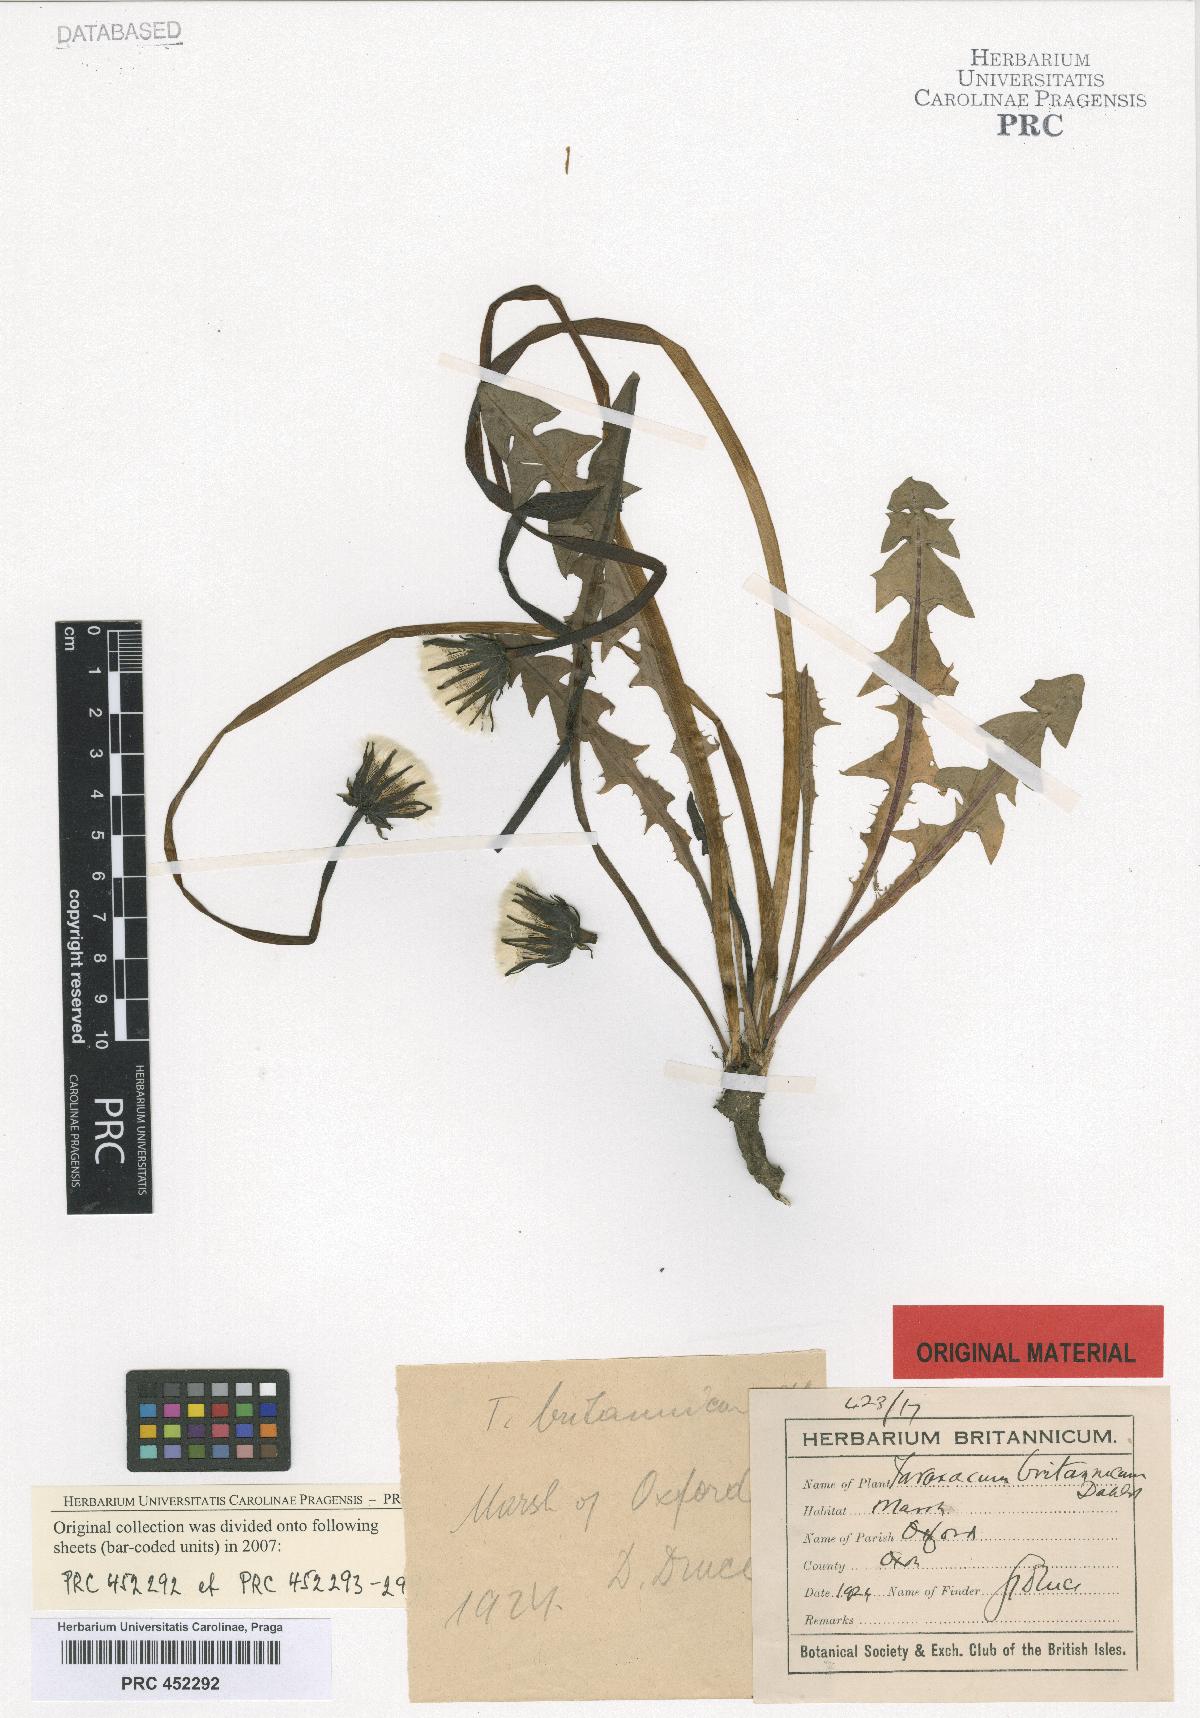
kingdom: Plantae
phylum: Tracheophyta
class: Magnoliopsida
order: Asterales
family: Asteraceae
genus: Taraxacum
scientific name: Taraxacum britannicum
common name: British dandelion
